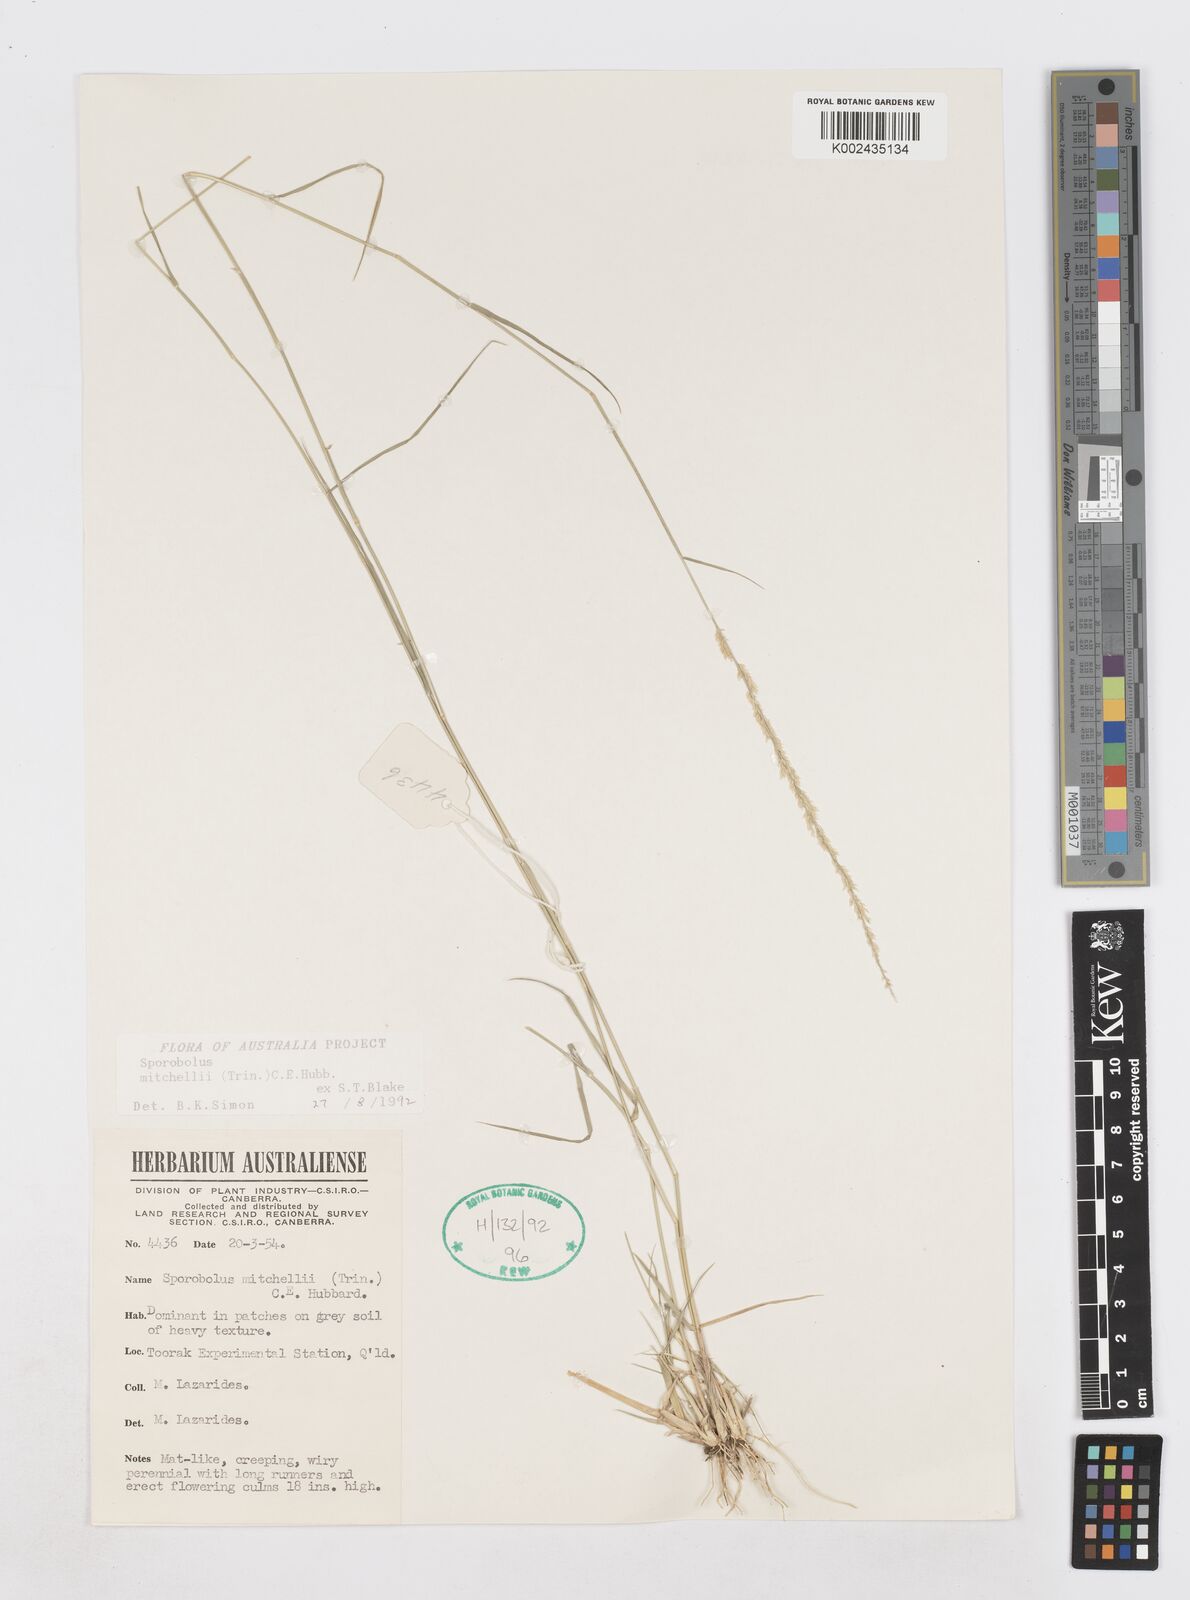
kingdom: Plantae
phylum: Tracheophyta
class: Liliopsida
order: Poales
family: Poaceae
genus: Sporobolus
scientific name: Sporobolus mitchellii
